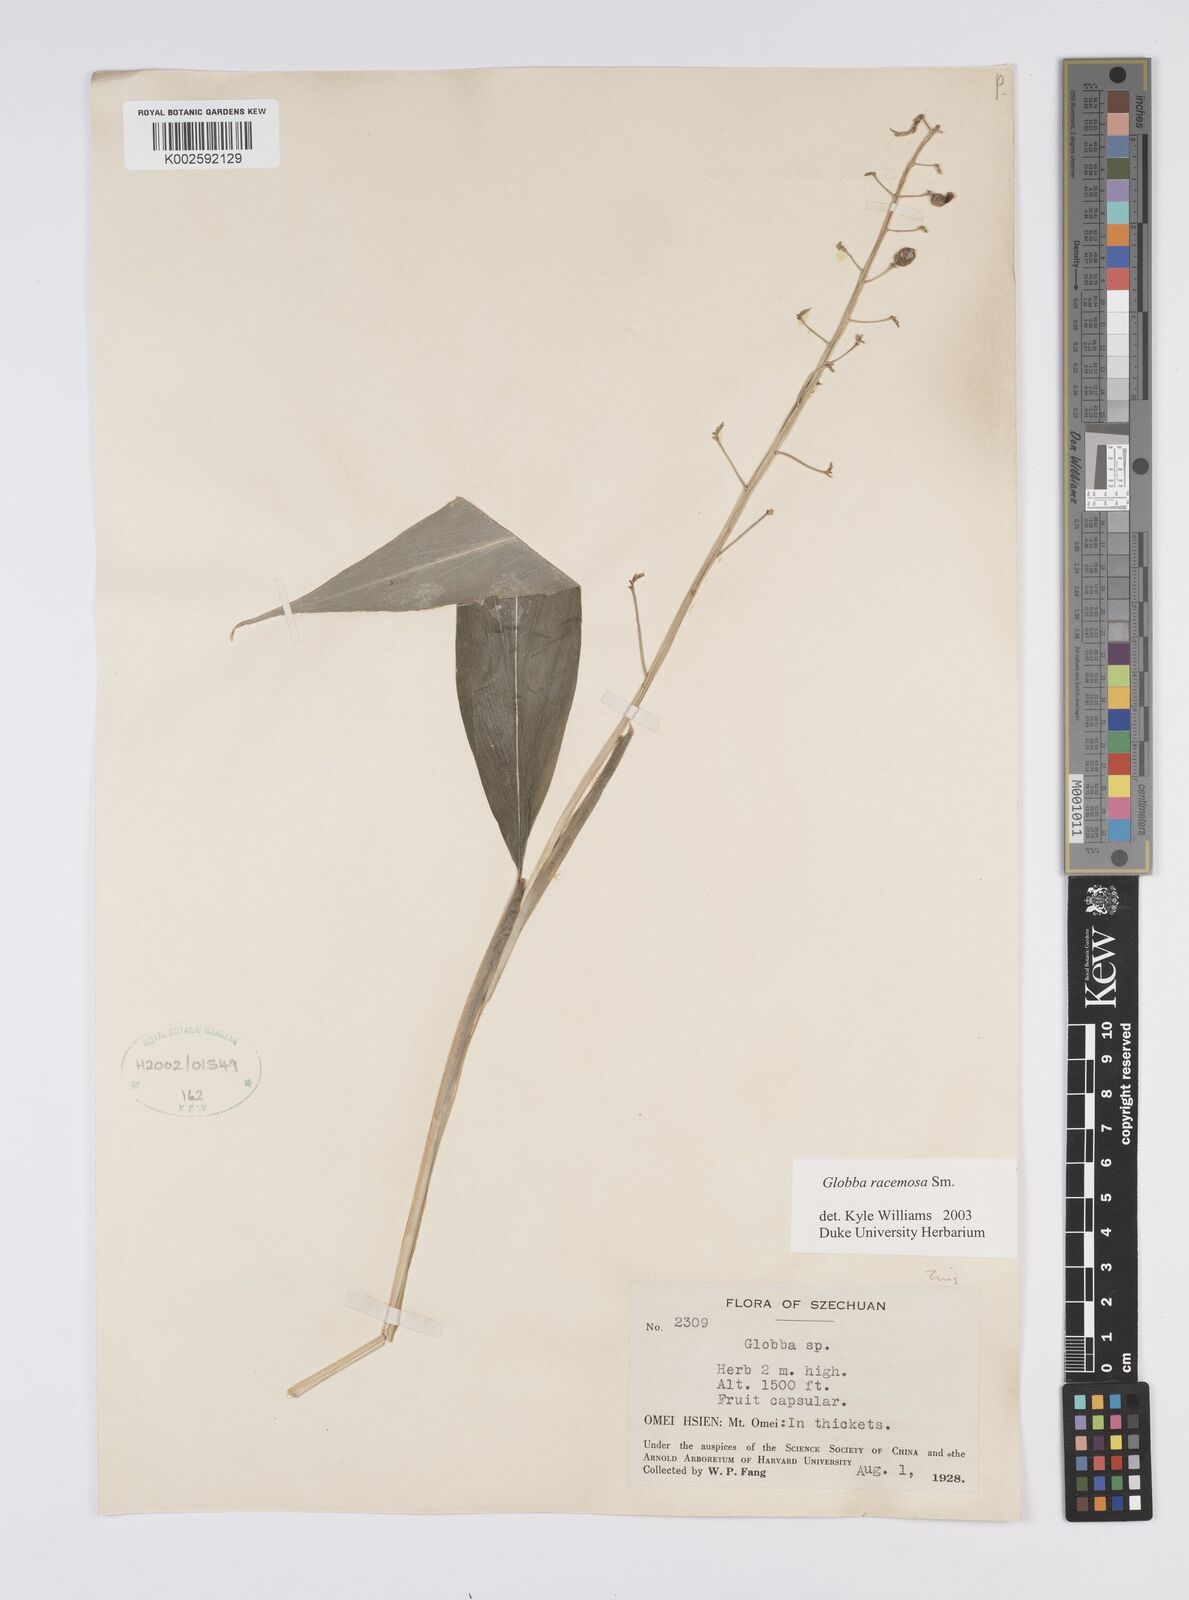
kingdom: Plantae
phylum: Tracheophyta
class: Liliopsida
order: Zingiberales
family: Zingiberaceae
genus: Globba
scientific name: Globba racemosa
